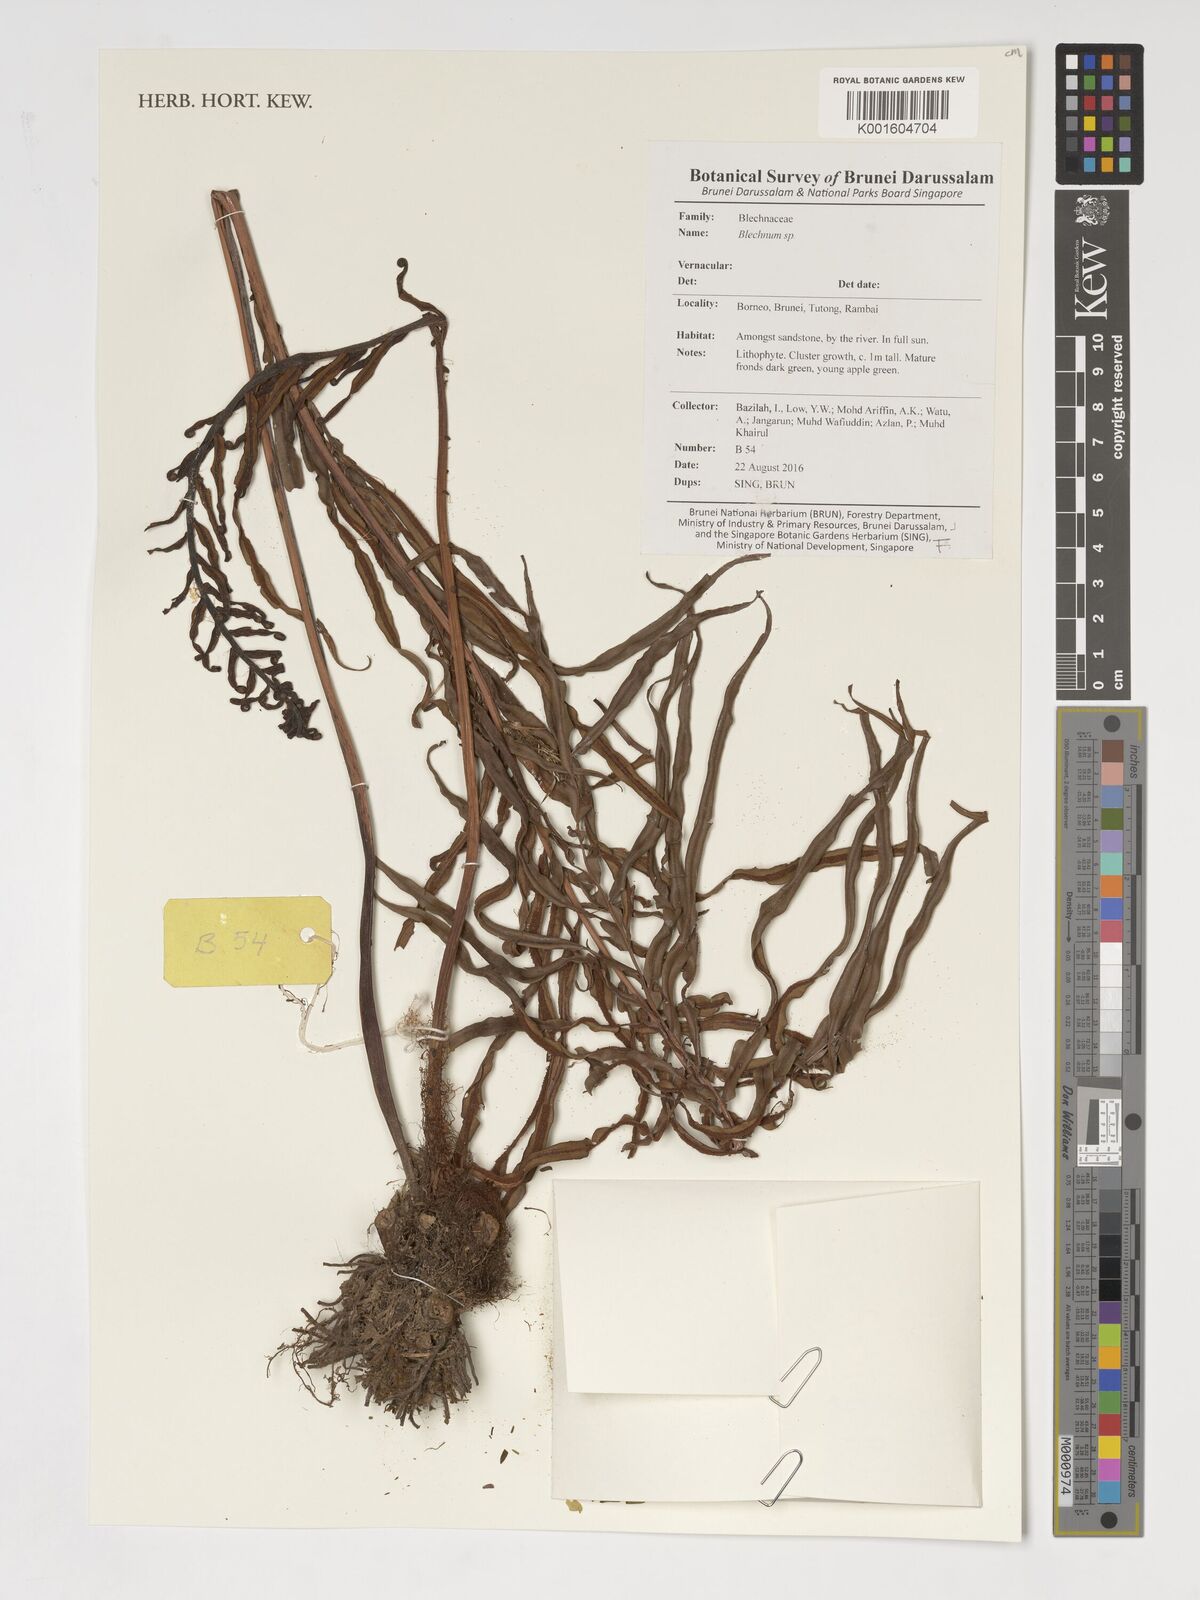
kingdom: Plantae
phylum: Tracheophyta
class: Polypodiopsida
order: Polypodiales
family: Blechnaceae
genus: Blechnum
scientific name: Blechnum
